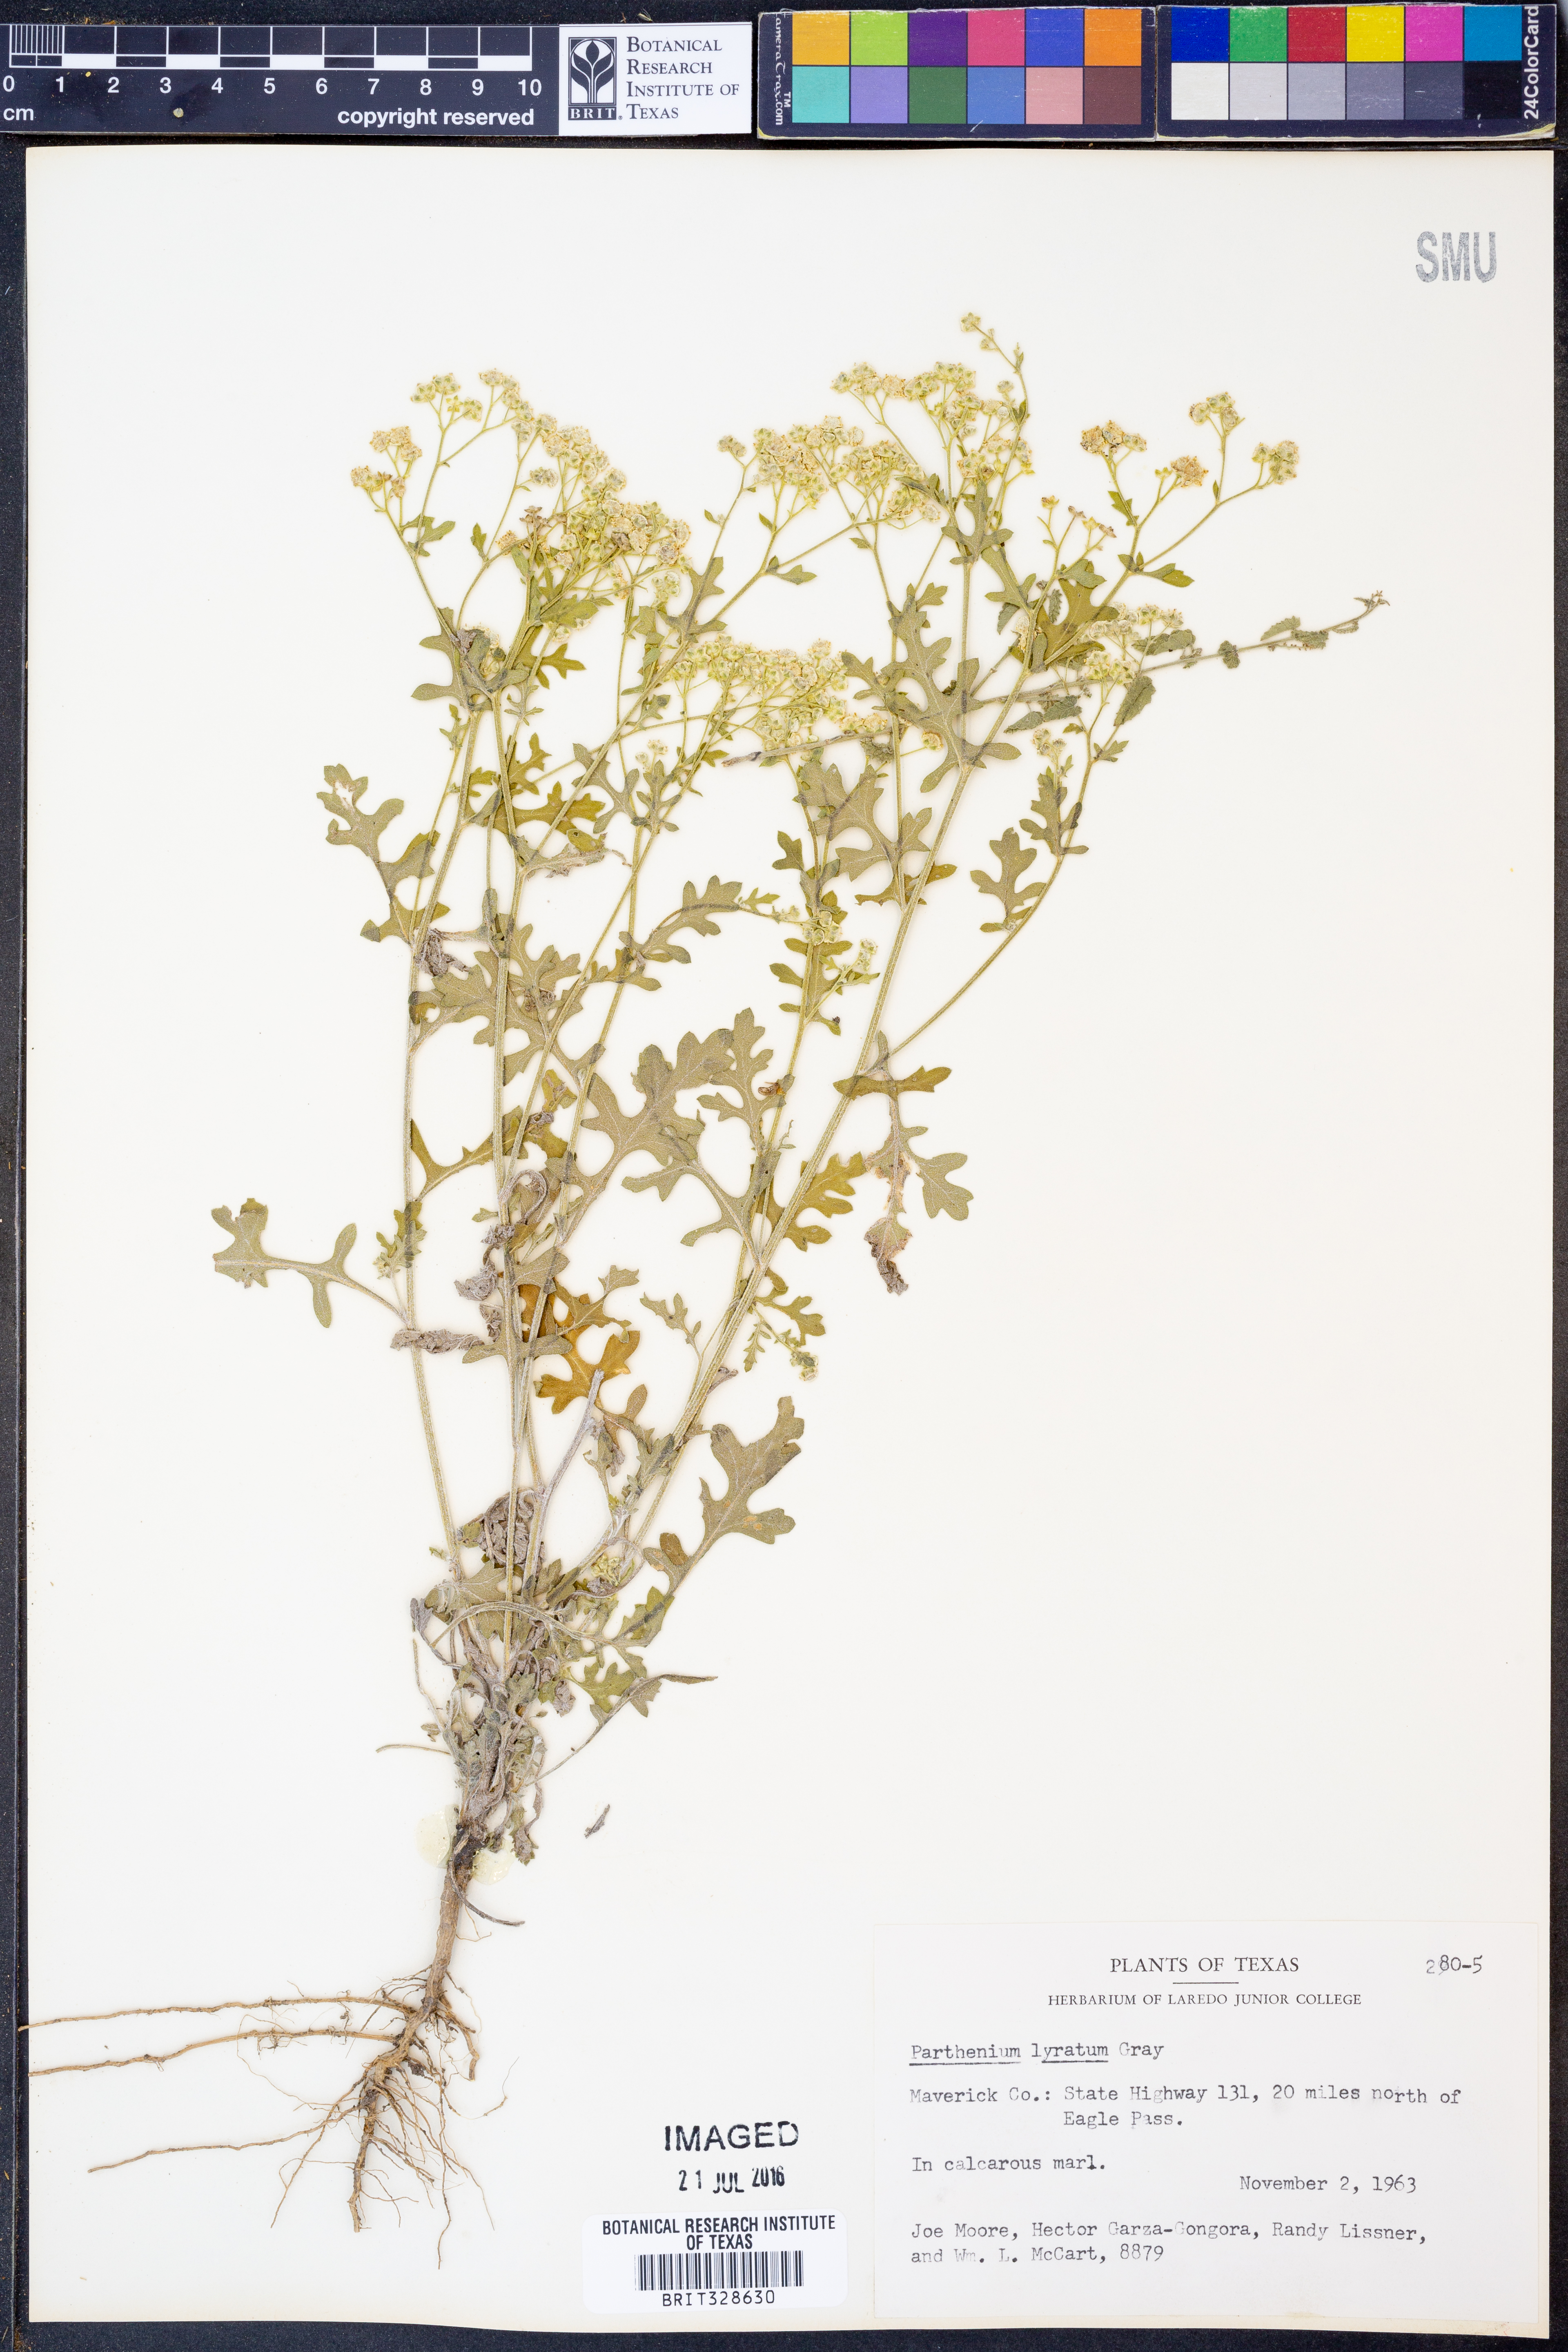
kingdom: Plantae
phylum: Tracheophyta
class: Magnoliopsida
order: Asterales
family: Asteraceae
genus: Parthenium
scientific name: Parthenium confertum
